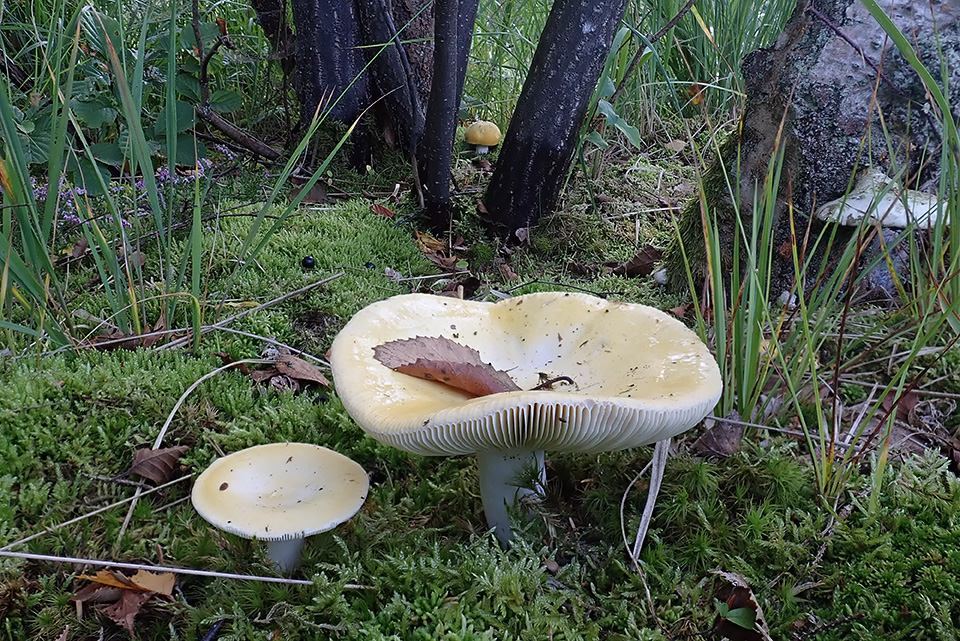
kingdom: Fungi
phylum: Basidiomycota
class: Agaricomycetes
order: Russulales
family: Russulaceae
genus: Russula
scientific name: Russula claroflava
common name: birke-skørhat
